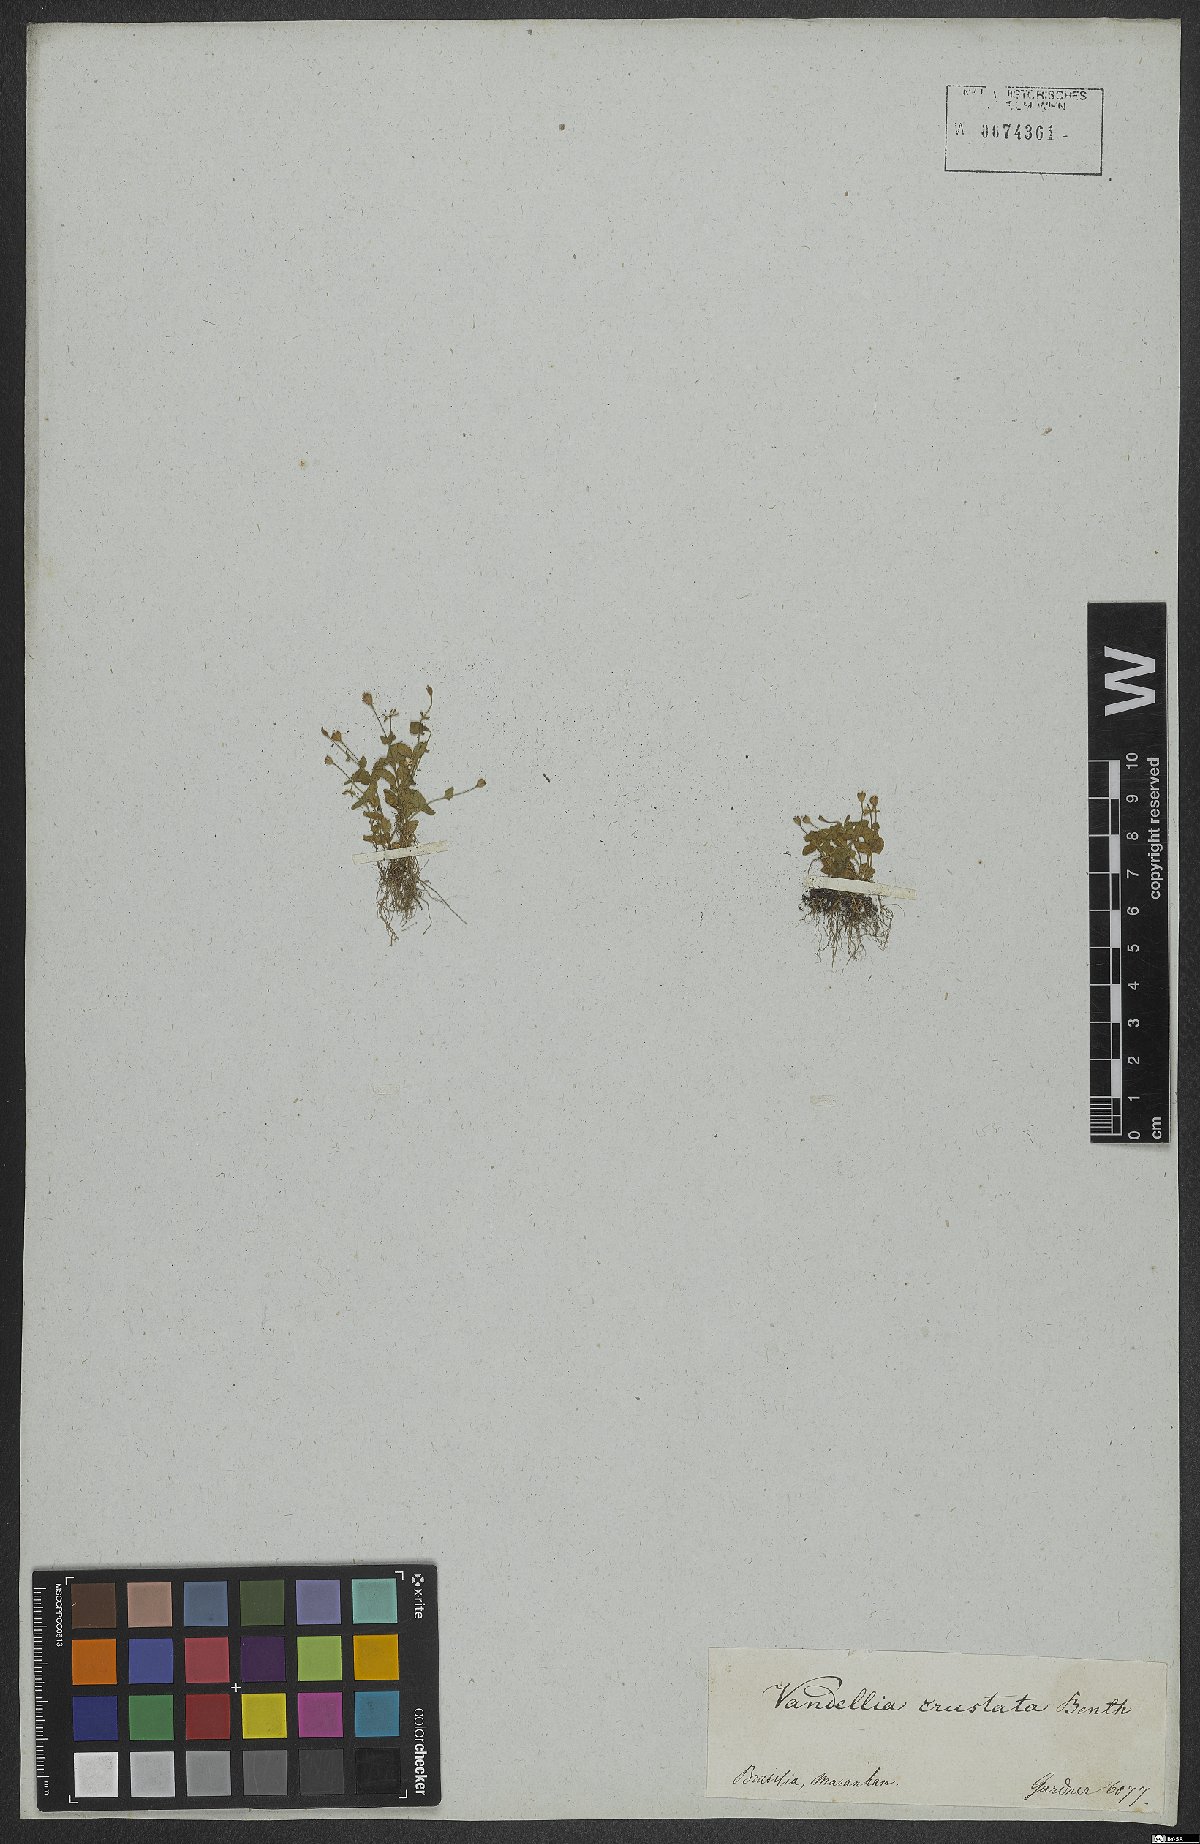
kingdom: Plantae
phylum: Tracheophyta
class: Magnoliopsida
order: Lamiales
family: Linderniaceae
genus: Torenia
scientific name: Torenia crustacea
